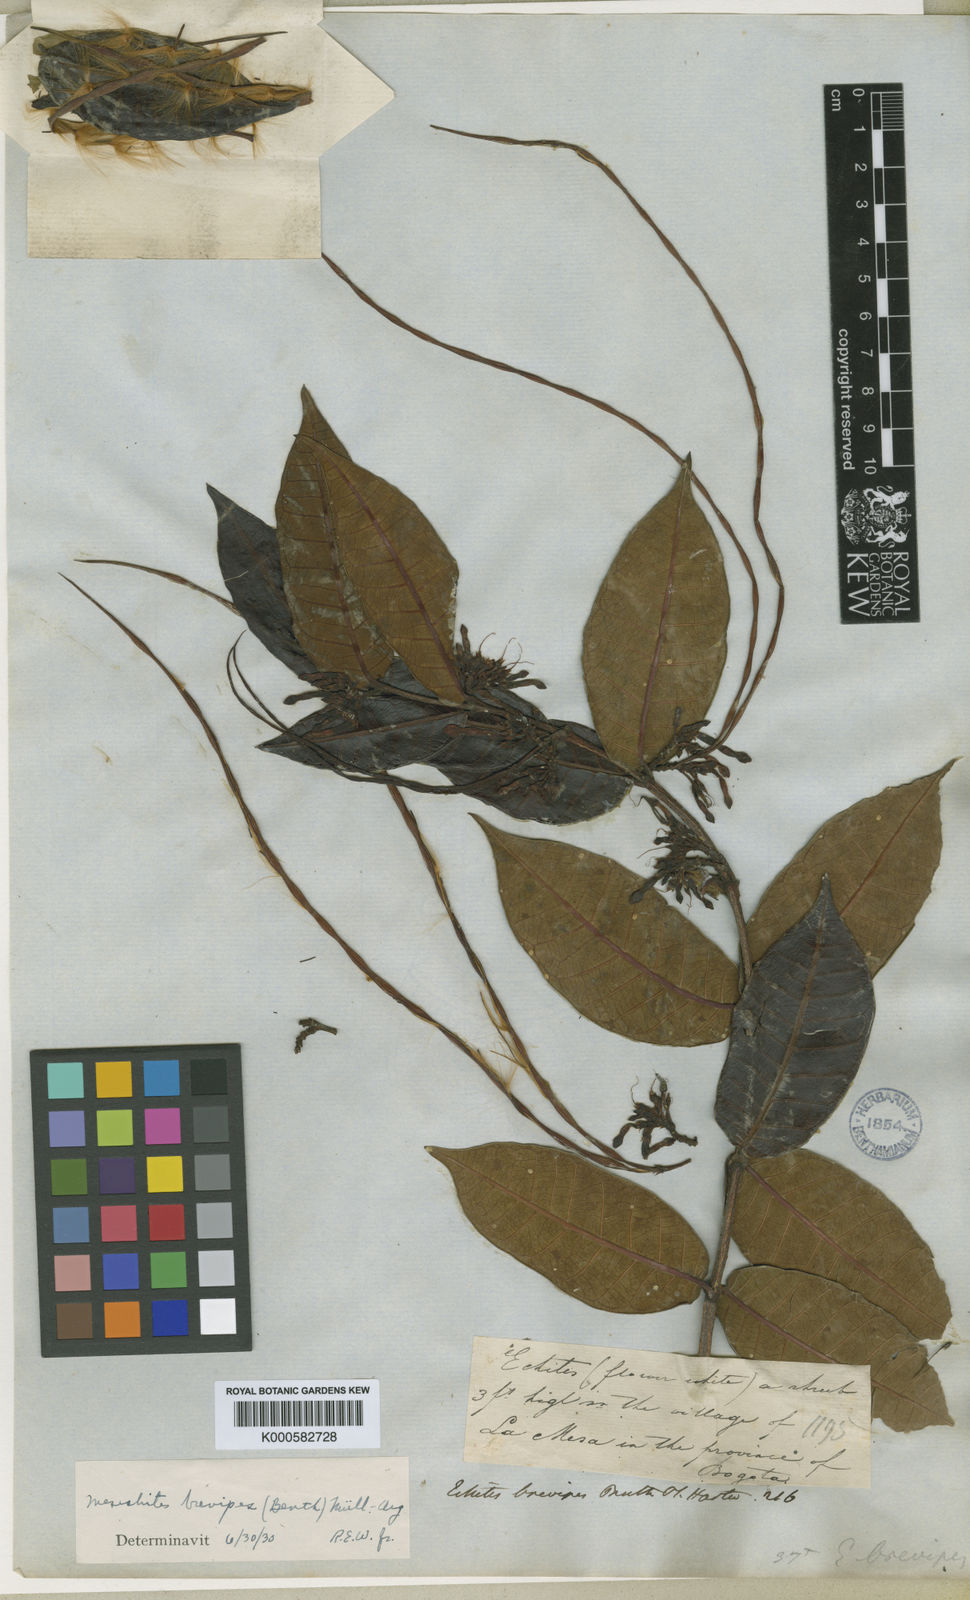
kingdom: Plantae
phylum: Tracheophyta
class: Magnoliopsida
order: Gentianales
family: Apocynaceae
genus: Mesechites
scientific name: Mesechites citrifolius
